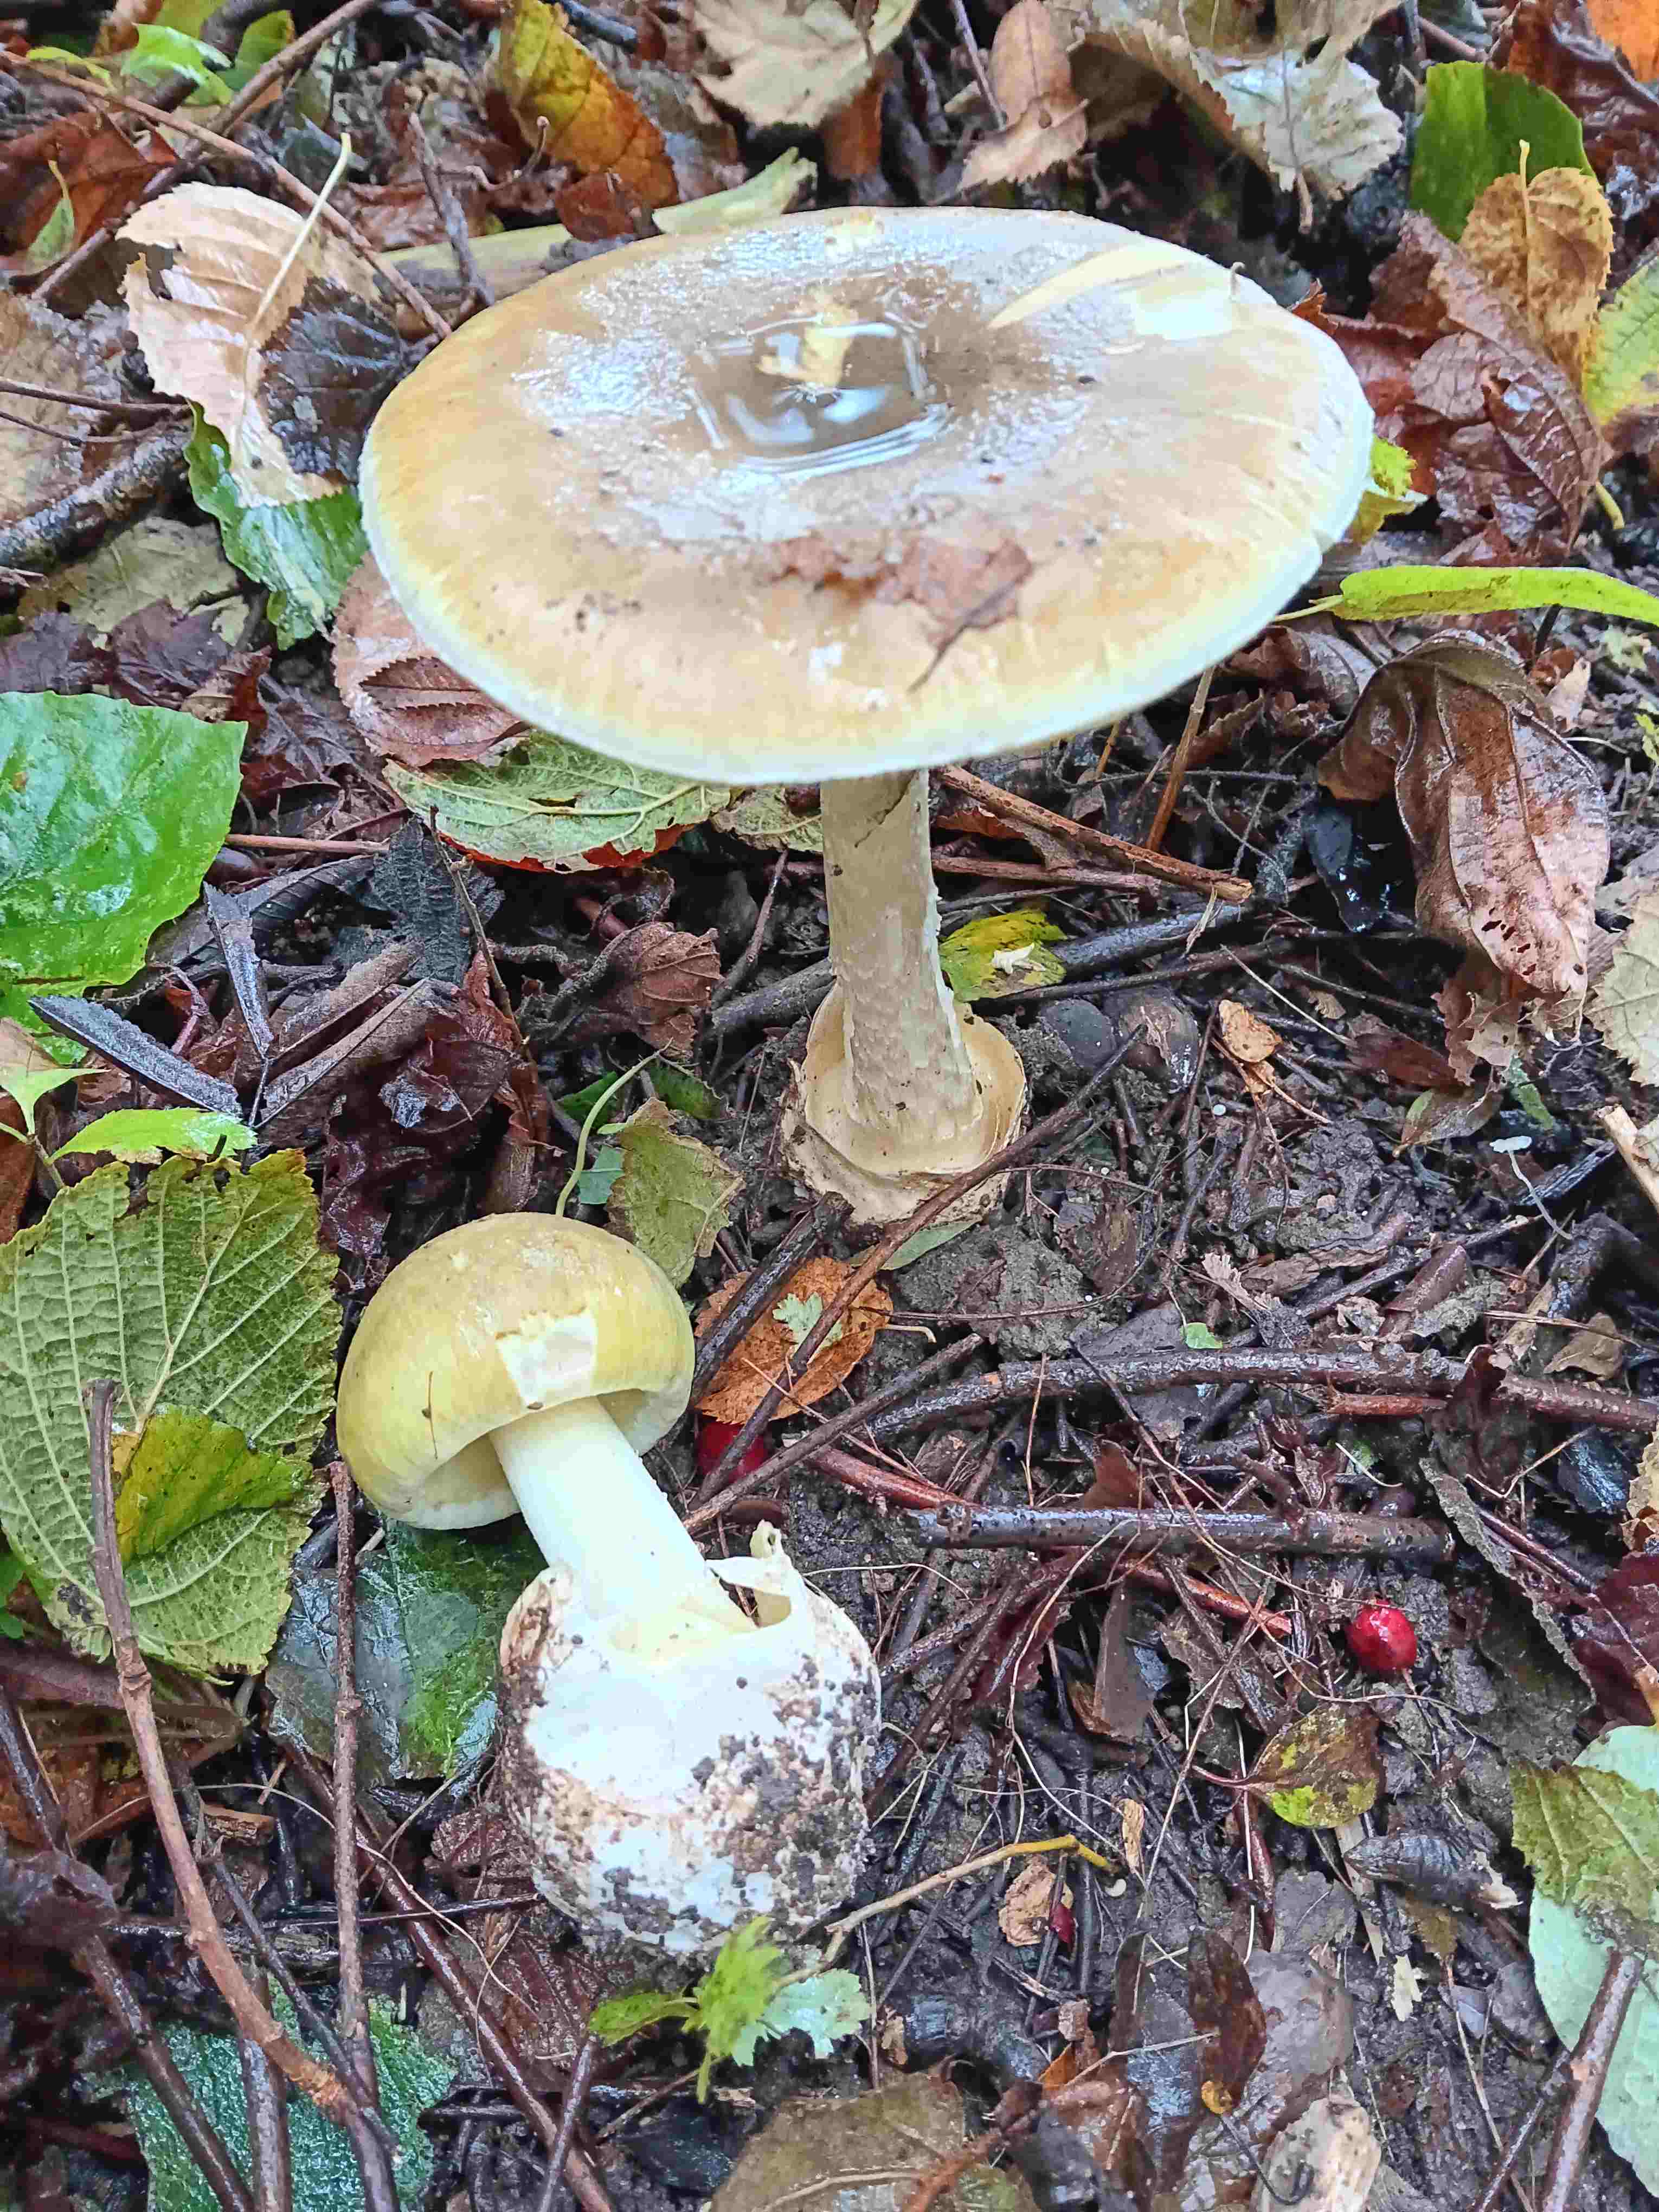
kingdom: Fungi
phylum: Basidiomycota
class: Agaricomycetes
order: Agaricales
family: Amanitaceae
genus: Amanita
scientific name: Amanita phalloides
